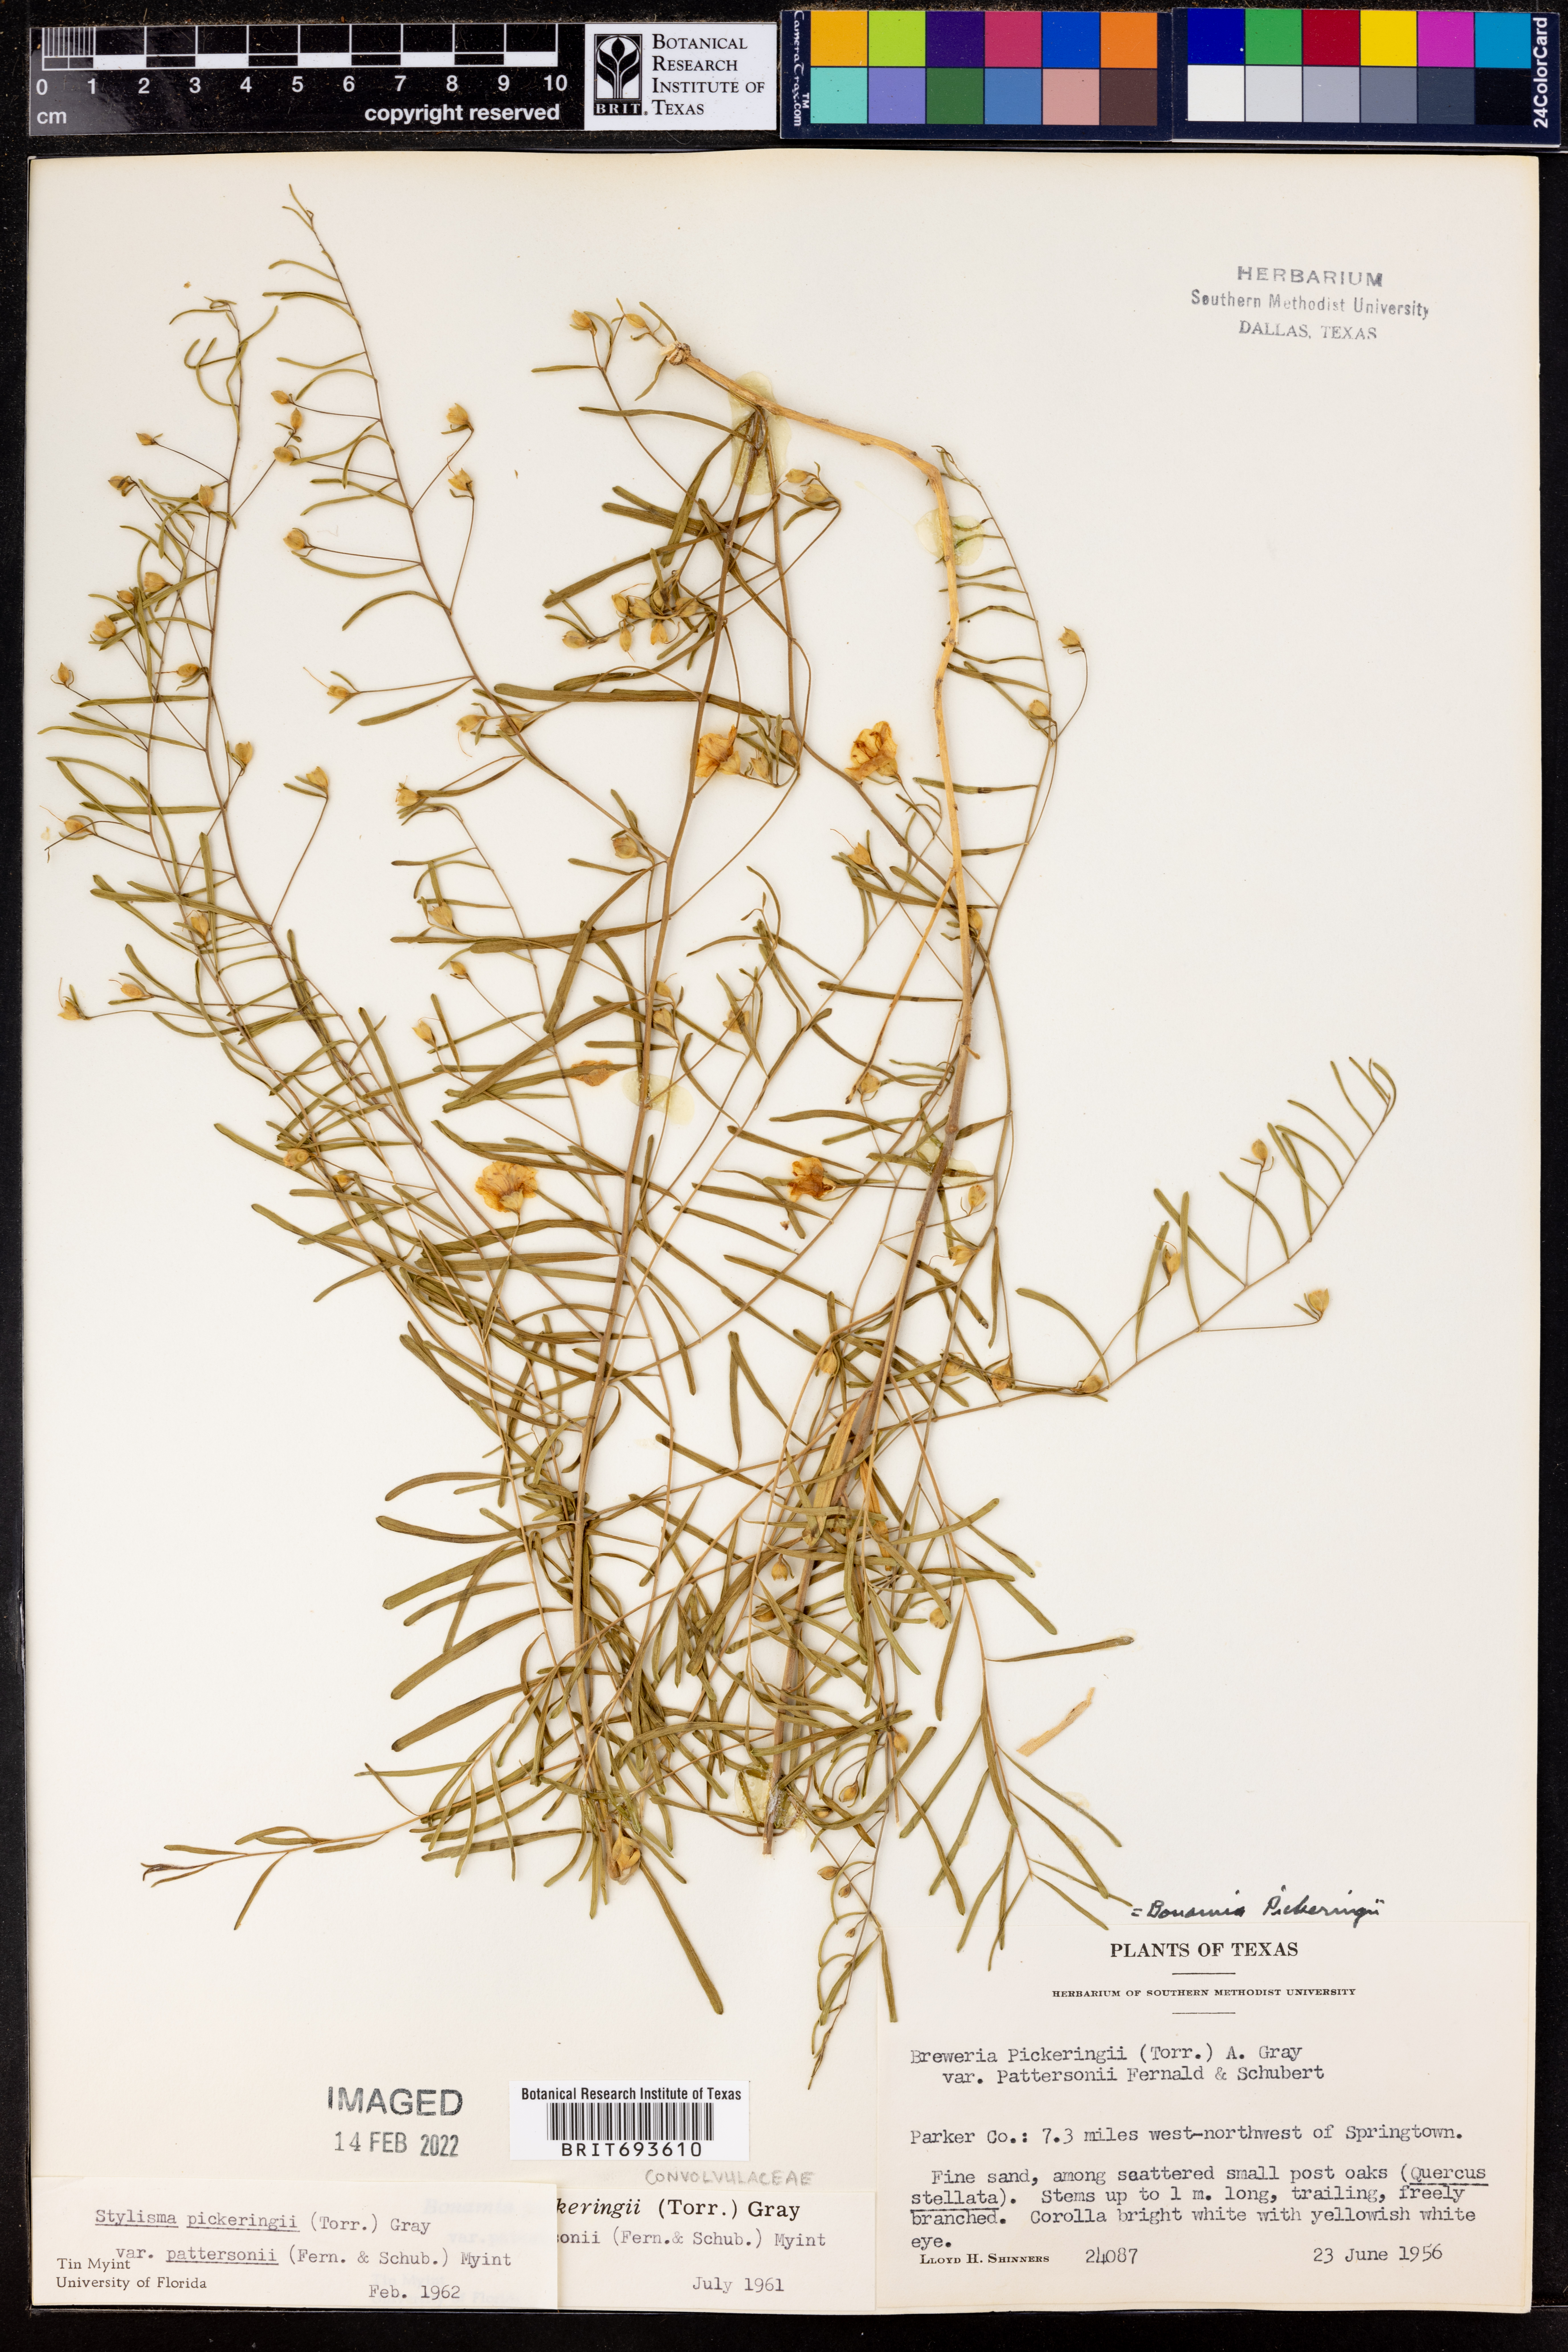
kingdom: Plantae
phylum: Tracheophyta
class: Magnoliopsida
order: Solanales
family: Convolvulaceae
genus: Stylisma
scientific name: Stylisma pickeringii
